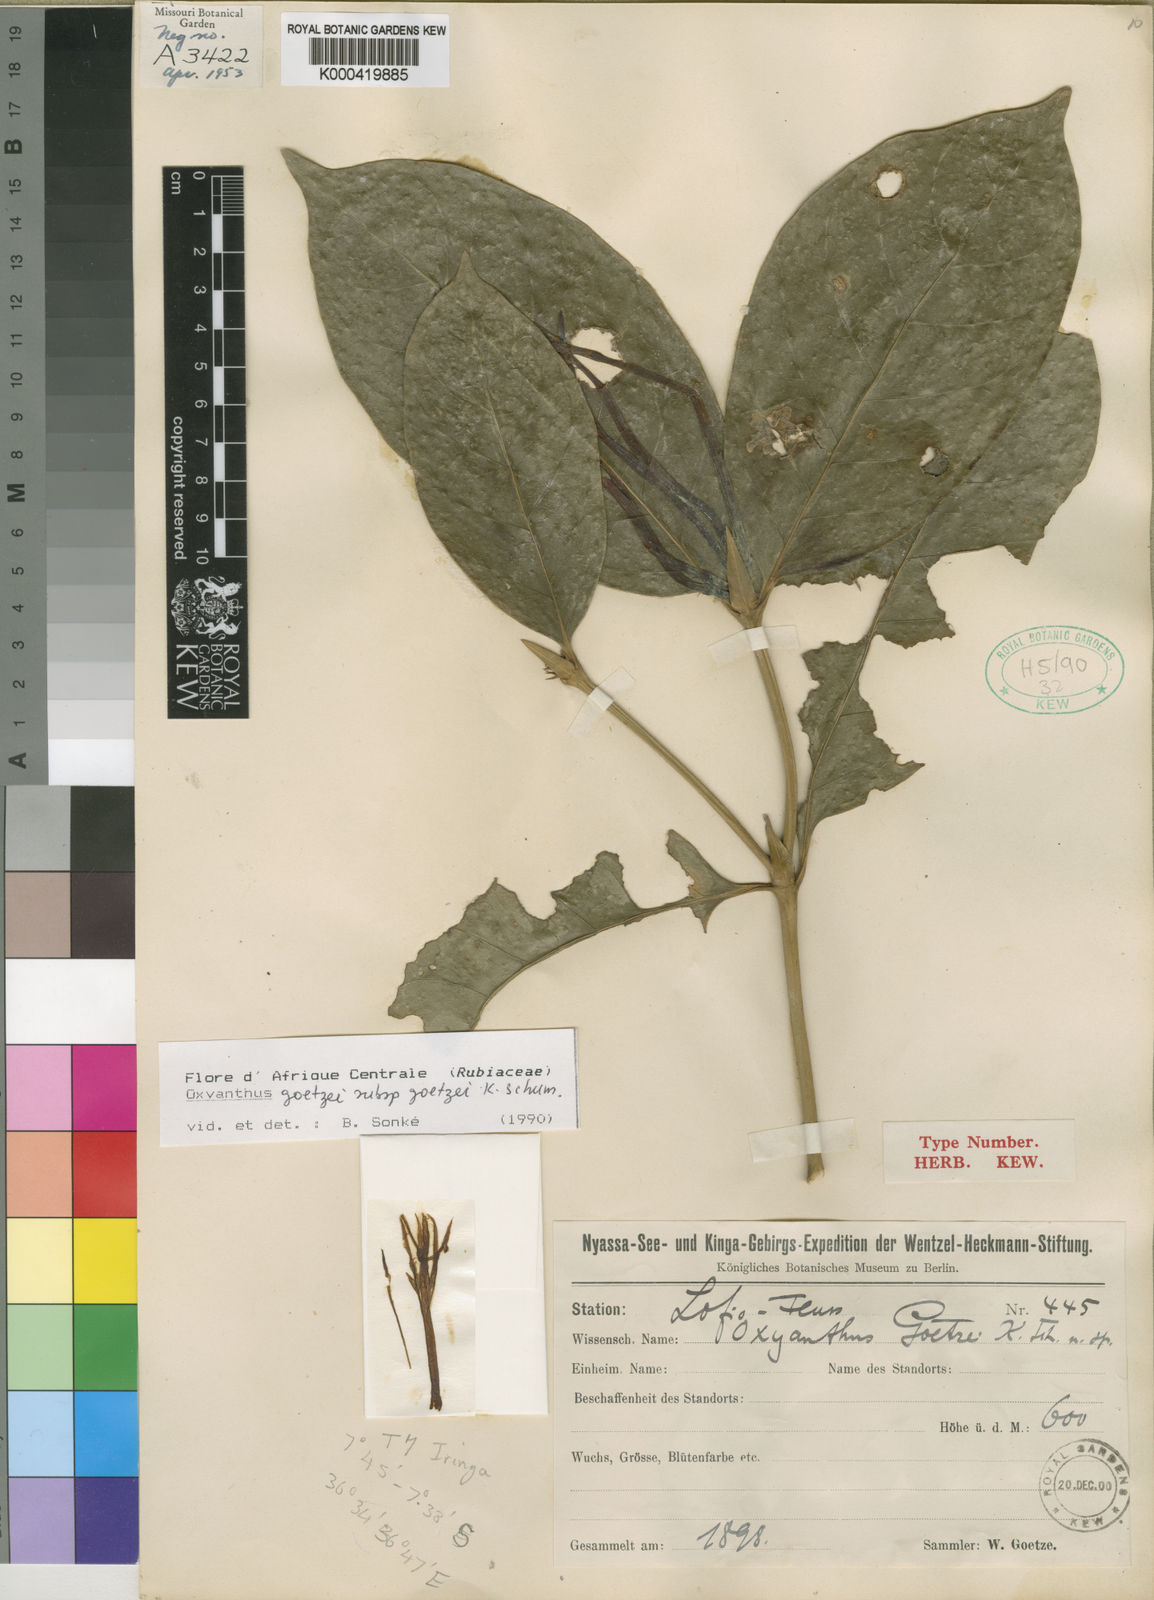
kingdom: Plantae
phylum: Tracheophyta
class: Magnoliopsida
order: Gentianales
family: Rubiaceae
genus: Oxyanthus
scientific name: Oxyanthus goetzei
